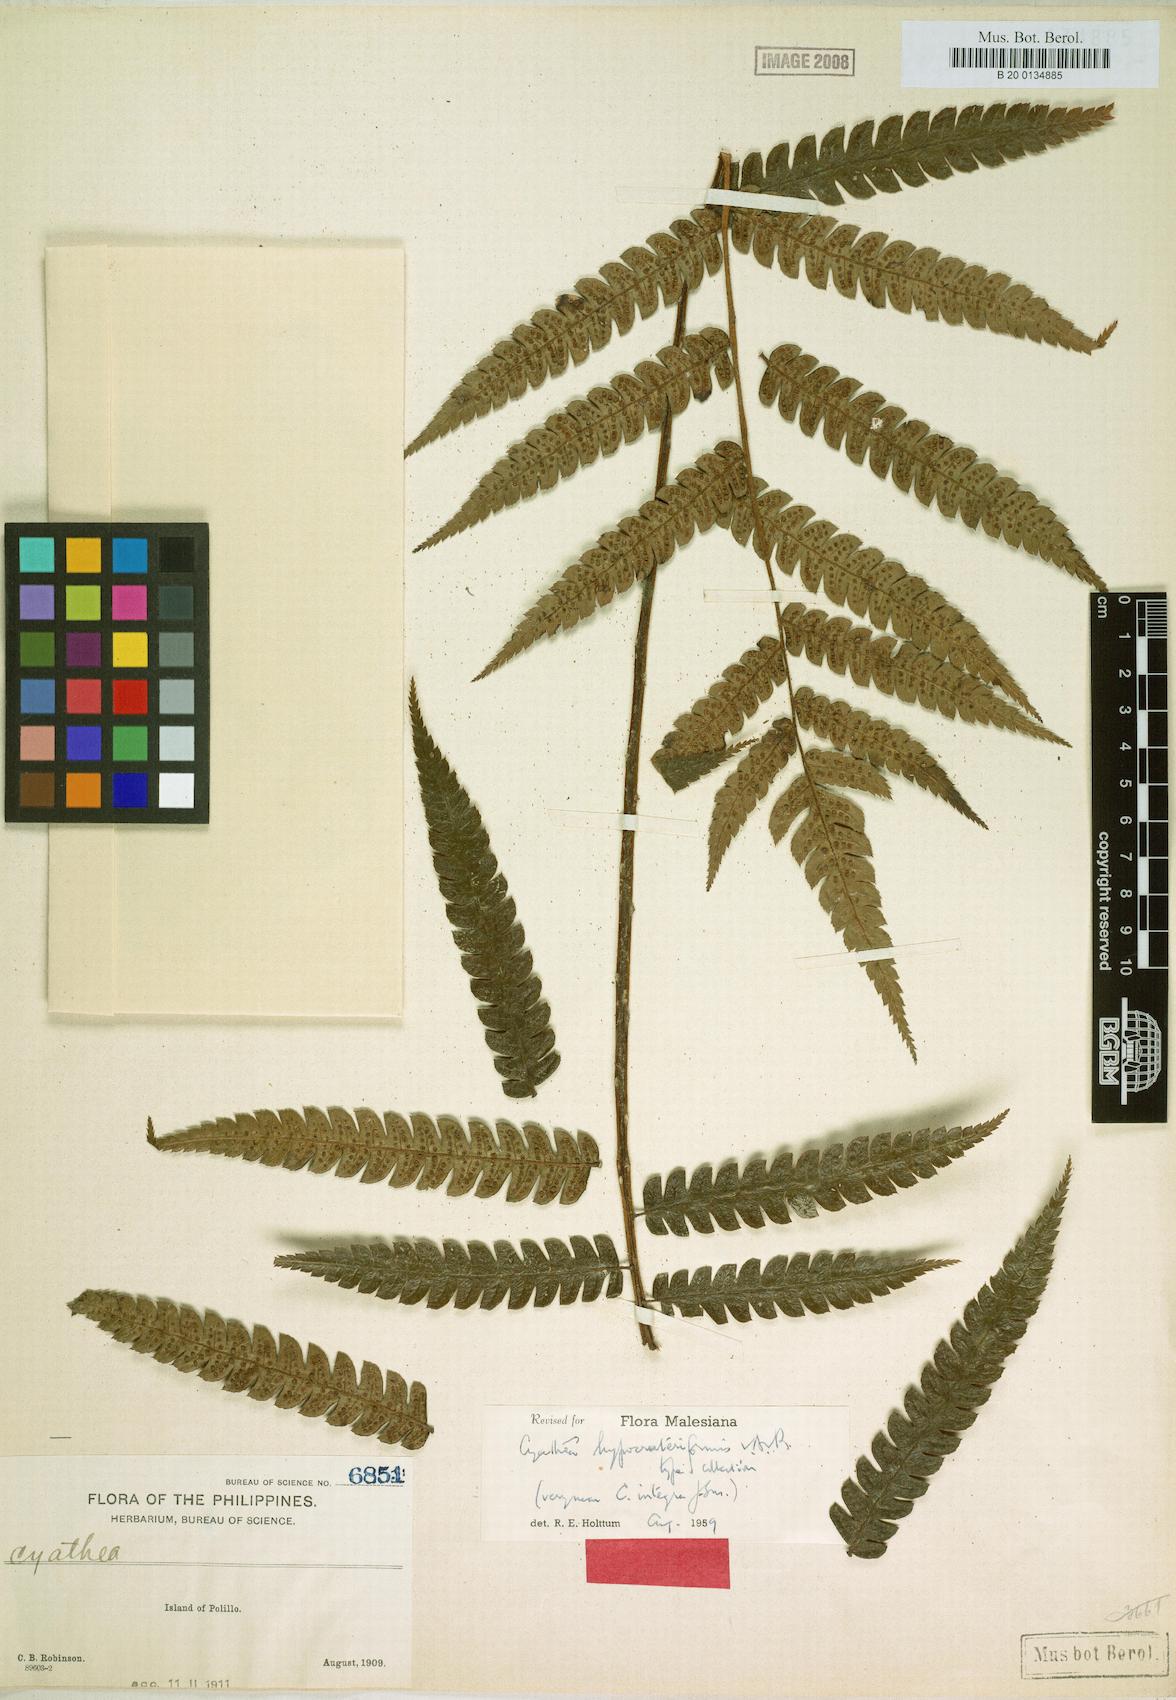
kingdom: Plantae
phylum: Tracheophyta
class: Polypodiopsida
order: Cyatheales
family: Cyatheaceae
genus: Sphaeropteris
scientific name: Sphaeropteris integra
